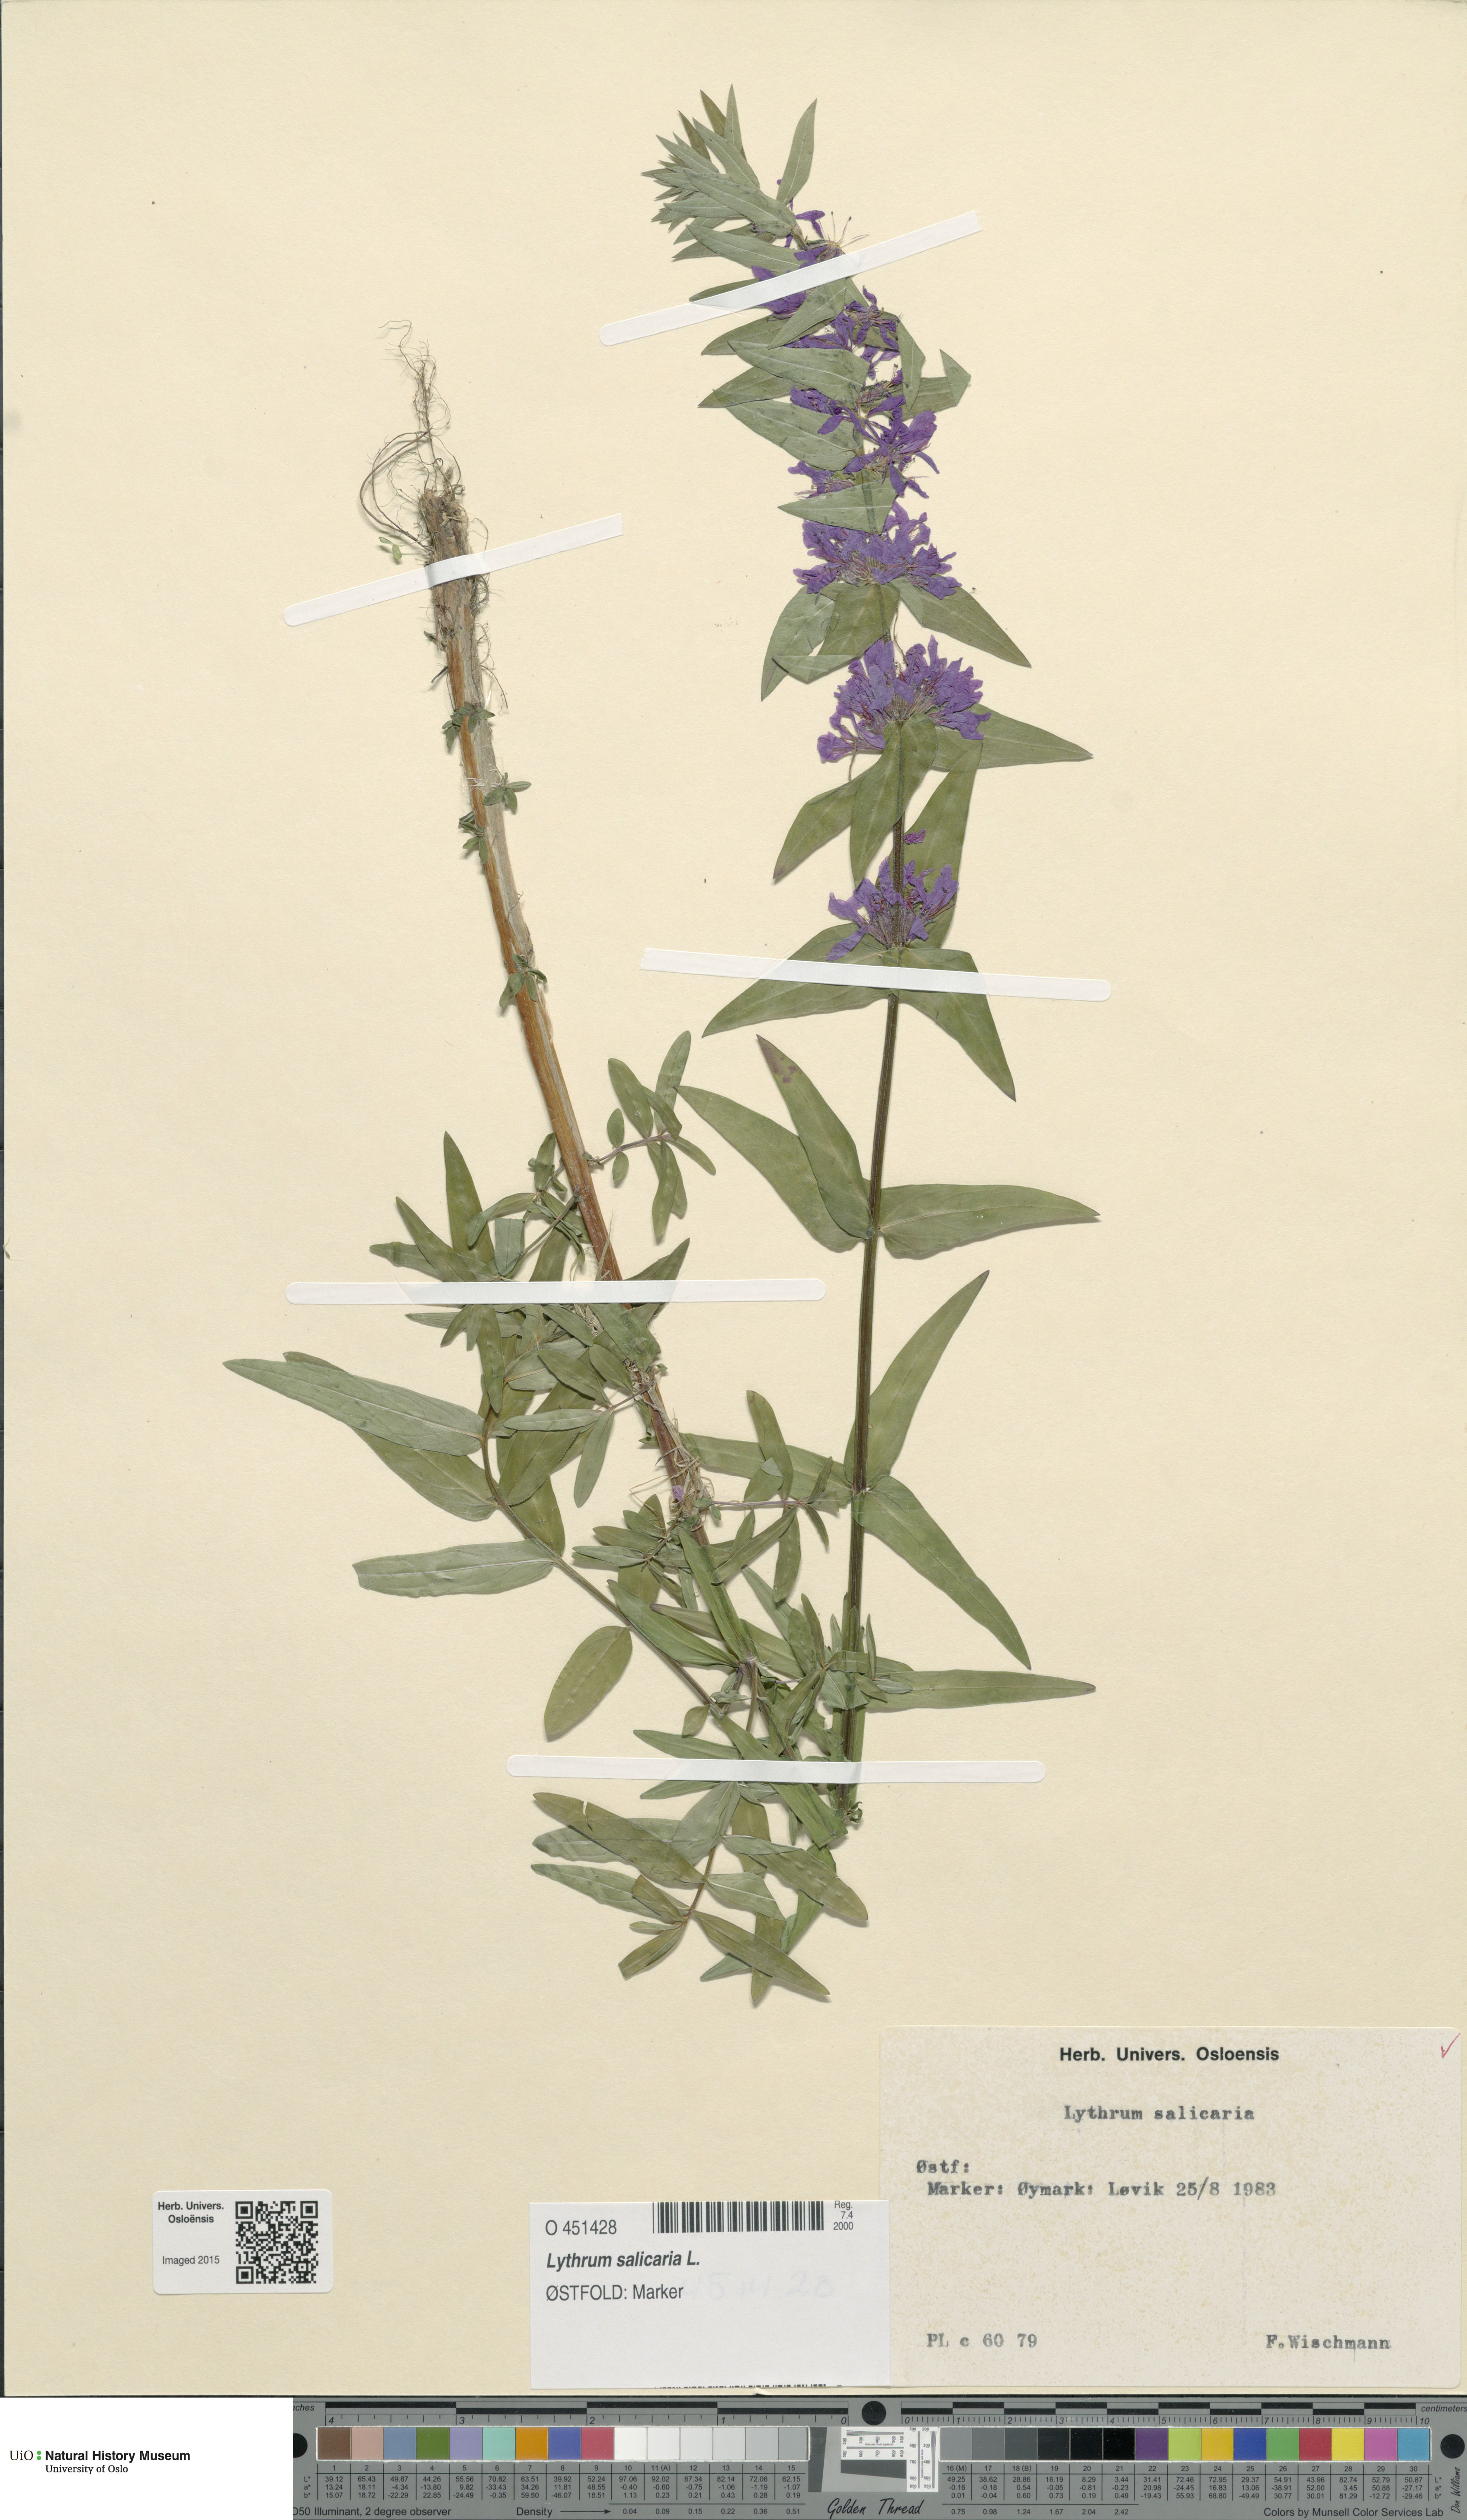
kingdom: Plantae
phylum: Tracheophyta
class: Magnoliopsida
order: Myrtales
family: Lythraceae
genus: Lythrum
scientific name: Lythrum salicaria
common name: Purple loosestrife
